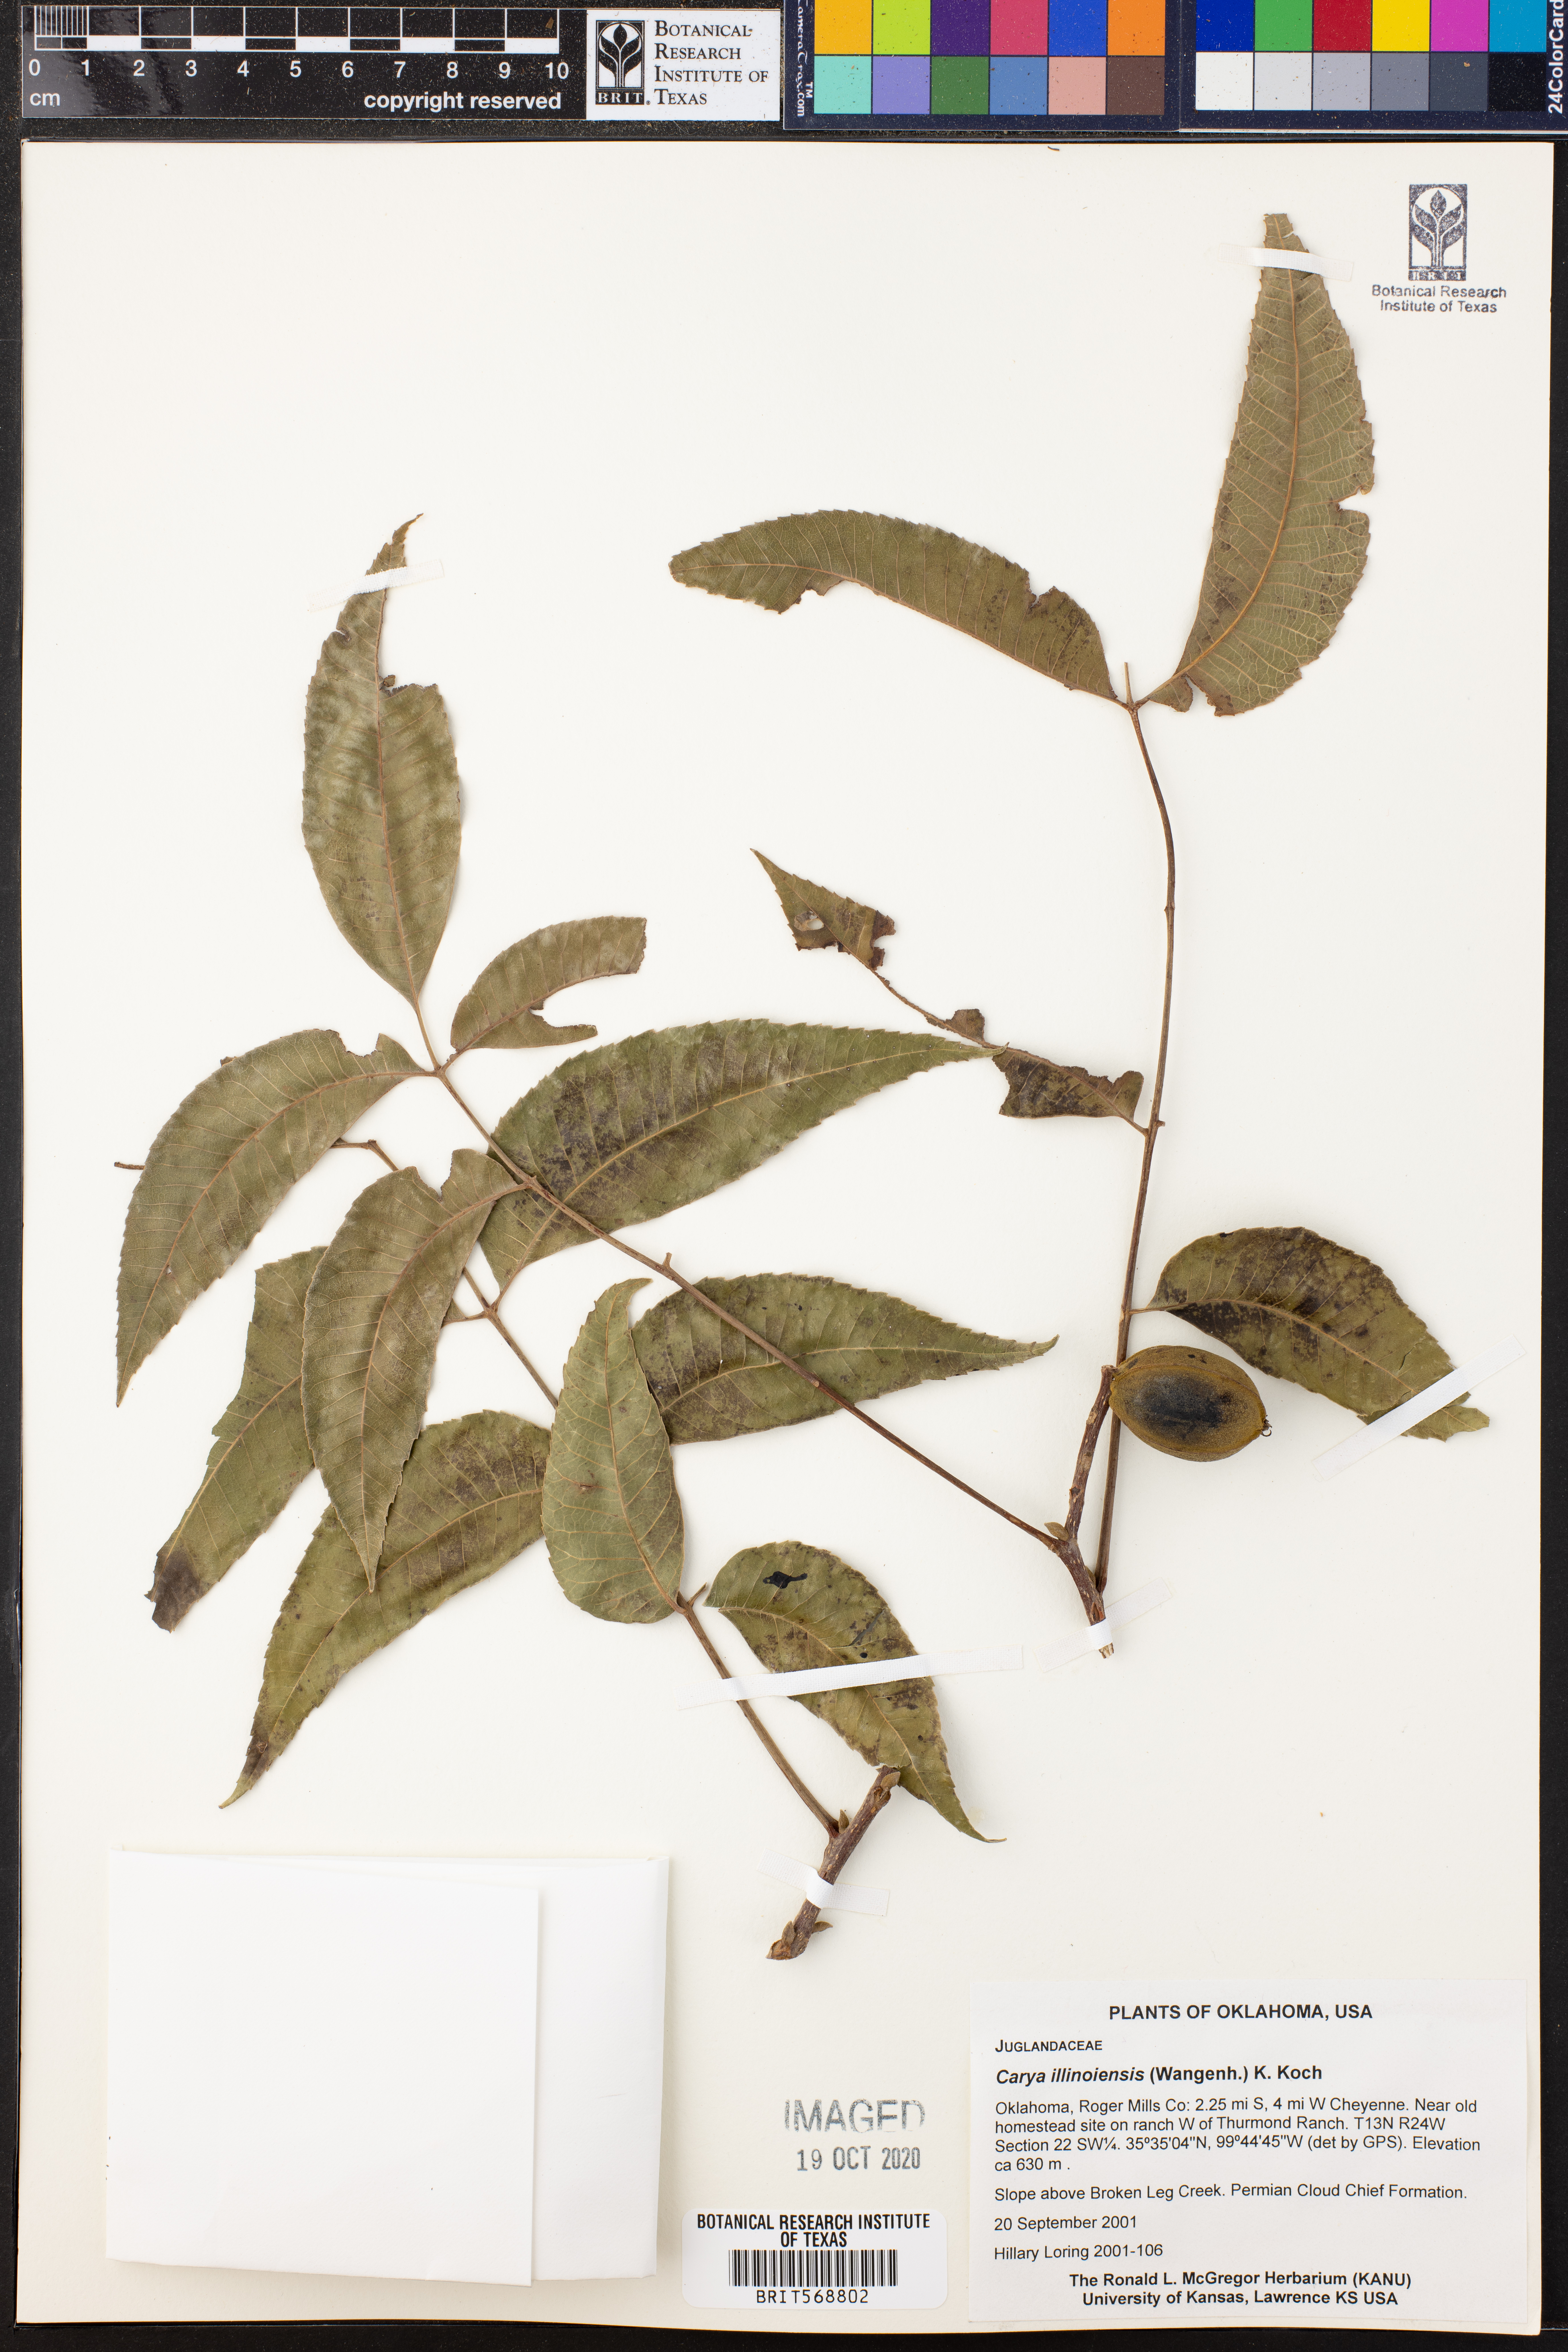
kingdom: Plantae
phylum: Tracheophyta
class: Magnoliopsida
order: Fagales
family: Juglandaceae
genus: Carya
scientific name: Carya
